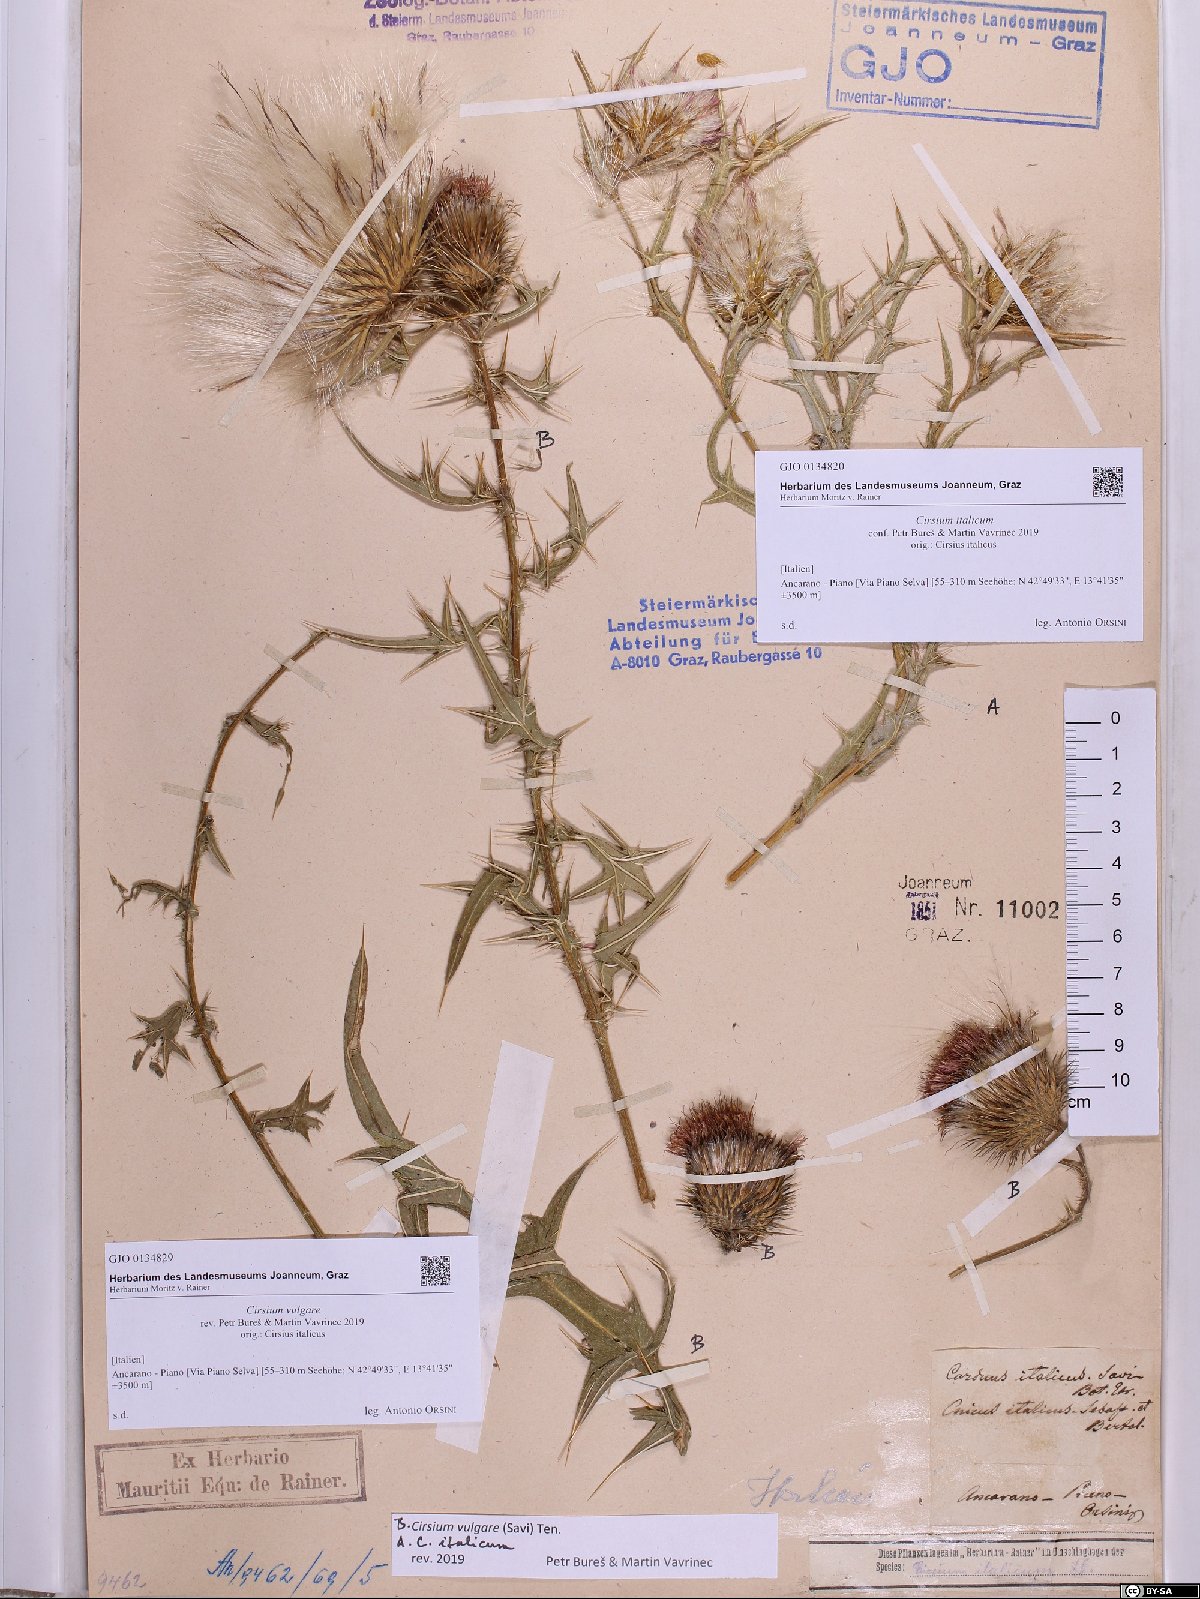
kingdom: Plantae
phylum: Tracheophyta
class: Magnoliopsida
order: Asterales
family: Asteraceae
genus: Epitrachys
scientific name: Epitrachys italica
